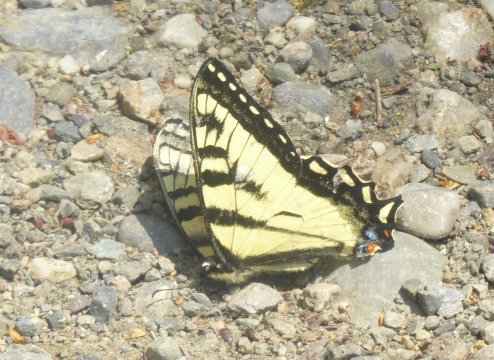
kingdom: Animalia
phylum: Arthropoda
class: Insecta
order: Lepidoptera
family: Papilionidae
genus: Pterourus
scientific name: Pterourus canadensis
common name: Canadian Tiger Swallowtail
